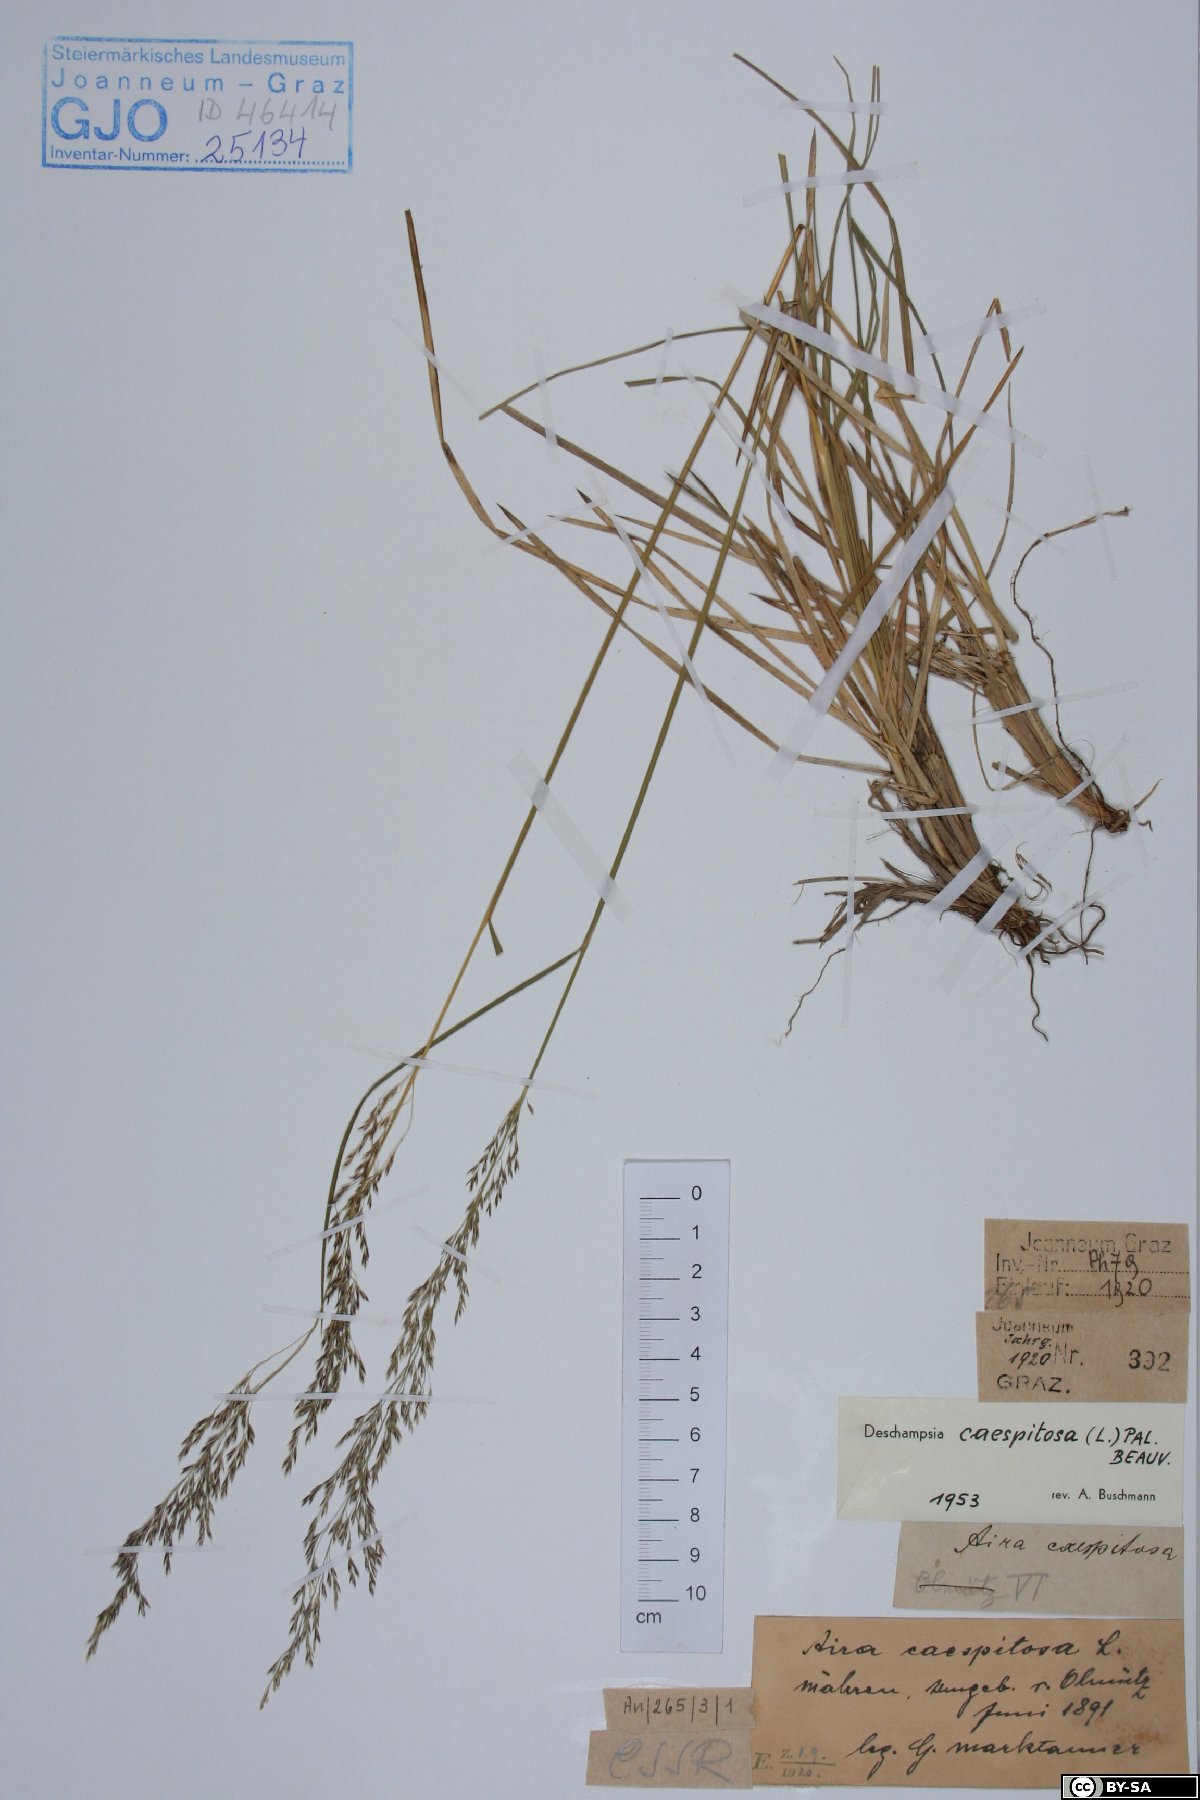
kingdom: Plantae
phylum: Tracheophyta
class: Liliopsida
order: Poales
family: Poaceae
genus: Deschampsia
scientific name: Deschampsia cespitosa
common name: Tufted hair-grass
